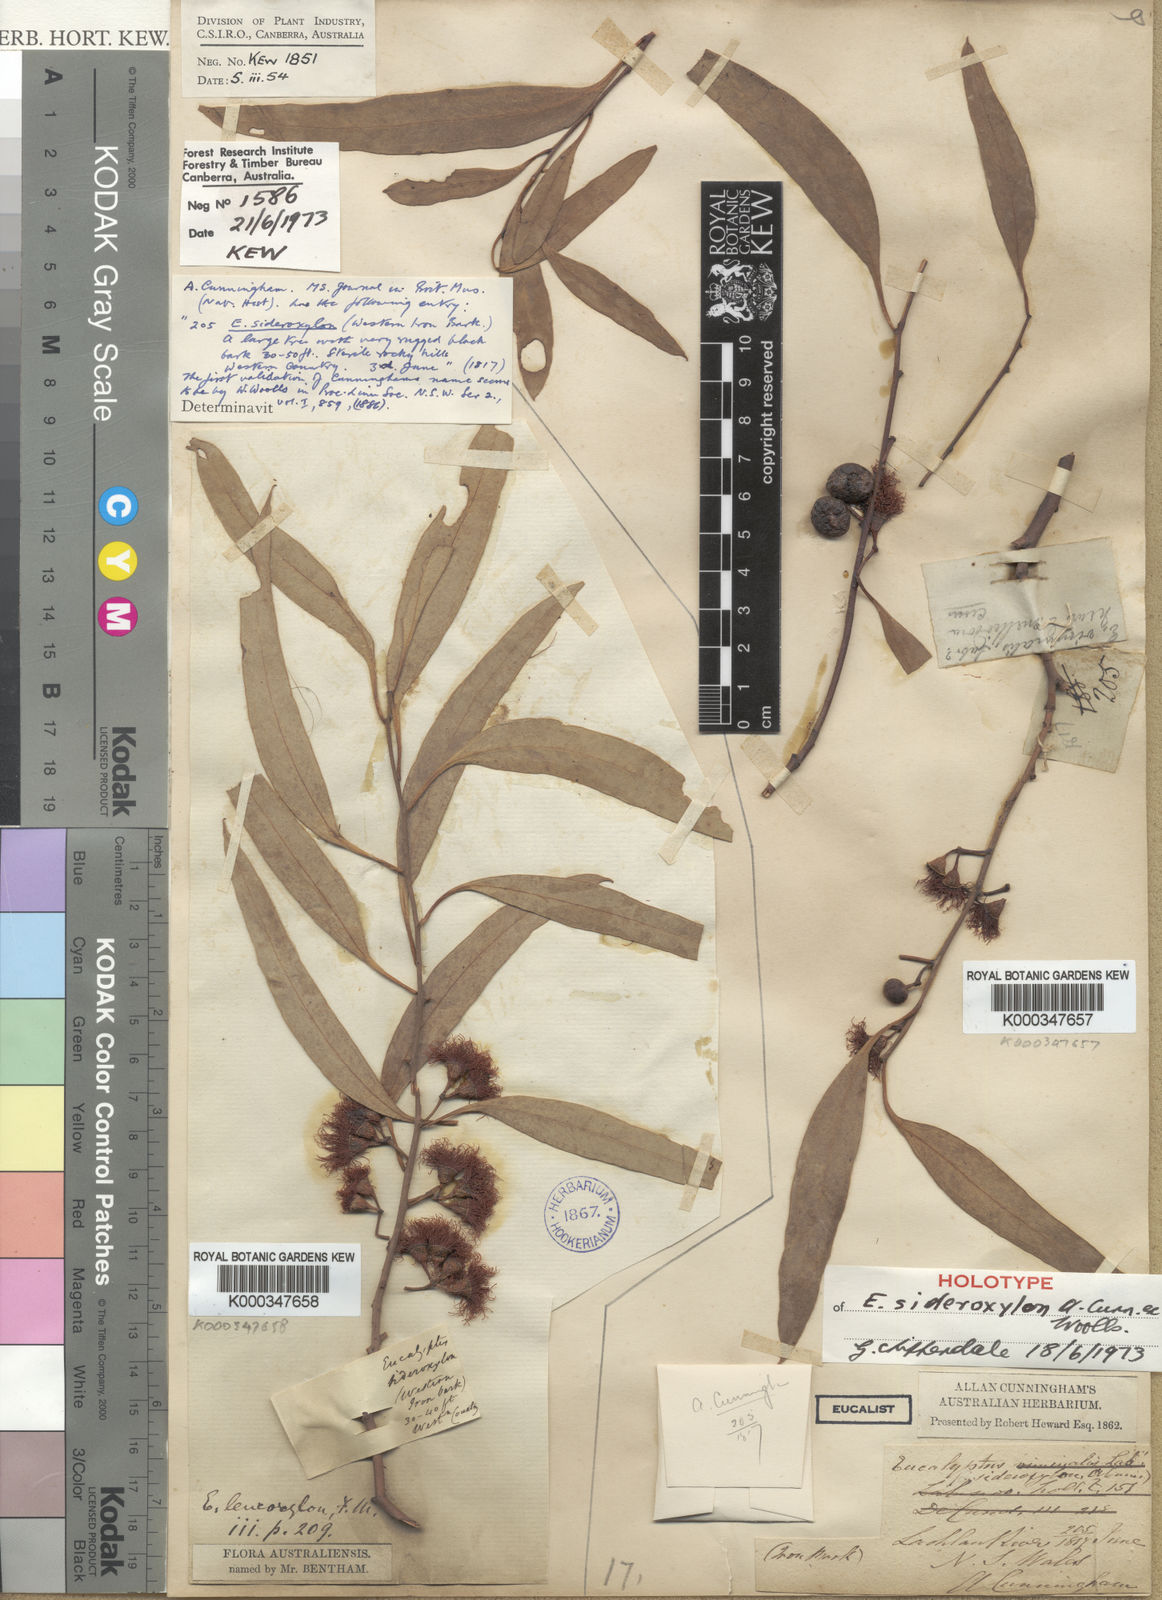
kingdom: Plantae
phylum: Tracheophyta
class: Magnoliopsida
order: Myrtales
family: Myrtaceae
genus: Eucalyptus
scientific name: Eucalyptus sideroxylon
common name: Red ironbark
